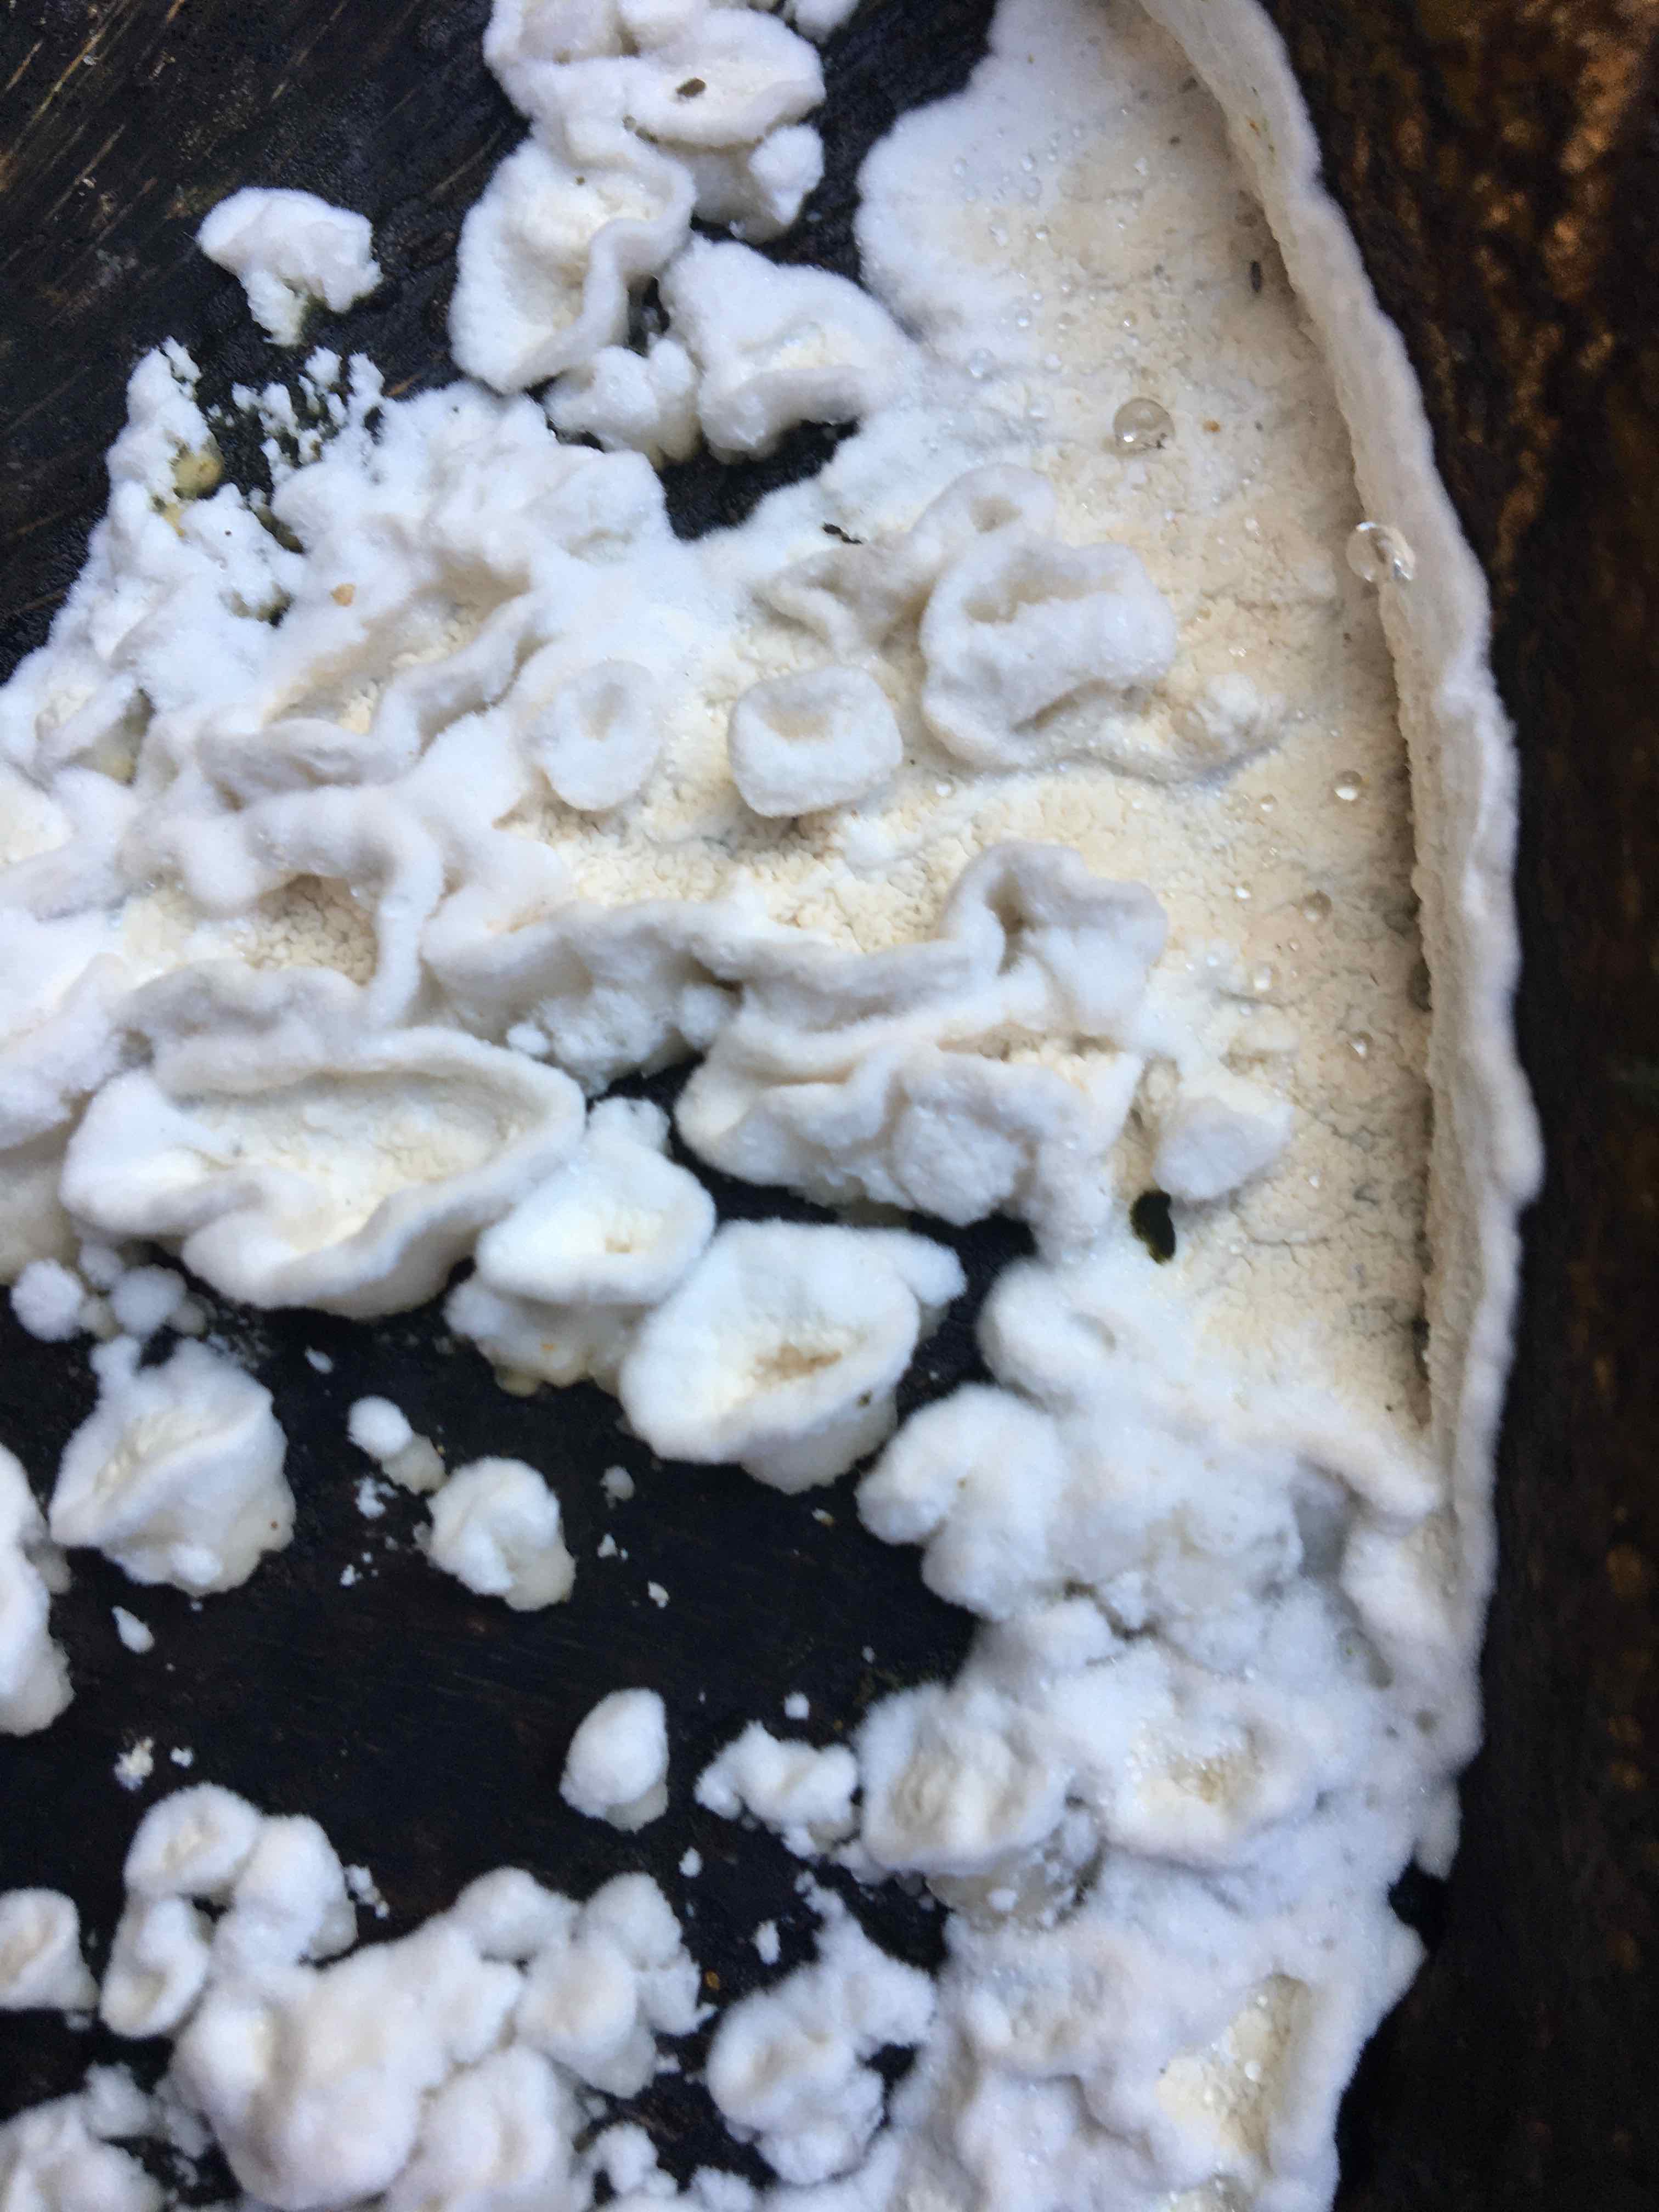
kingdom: Fungi
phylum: Basidiomycota
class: Agaricomycetes
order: Polyporales
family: Irpicaceae
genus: Byssomerulius
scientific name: Byssomerulius corium
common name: læder-åresvamp
